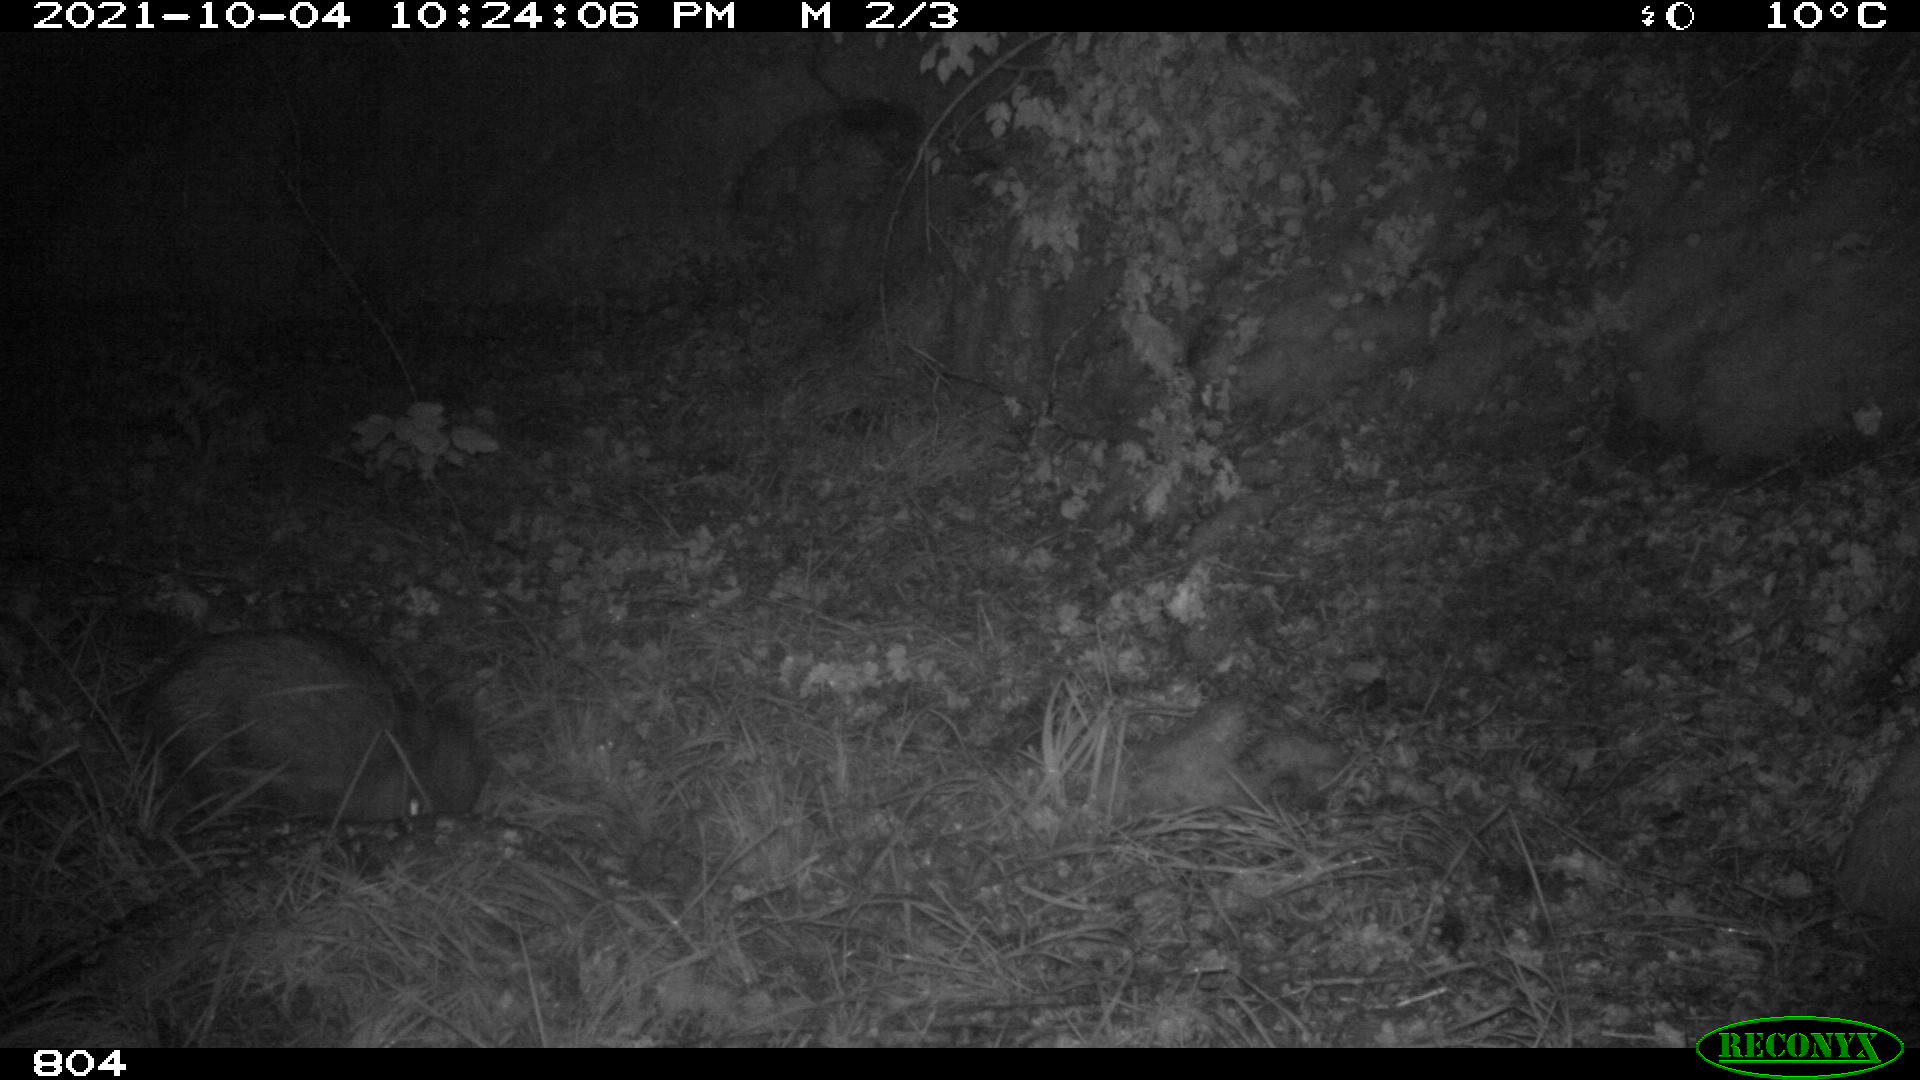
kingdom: Animalia
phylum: Chordata
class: Mammalia
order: Artiodactyla
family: Suidae
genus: Sus
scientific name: Sus scrofa
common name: Wild boar
